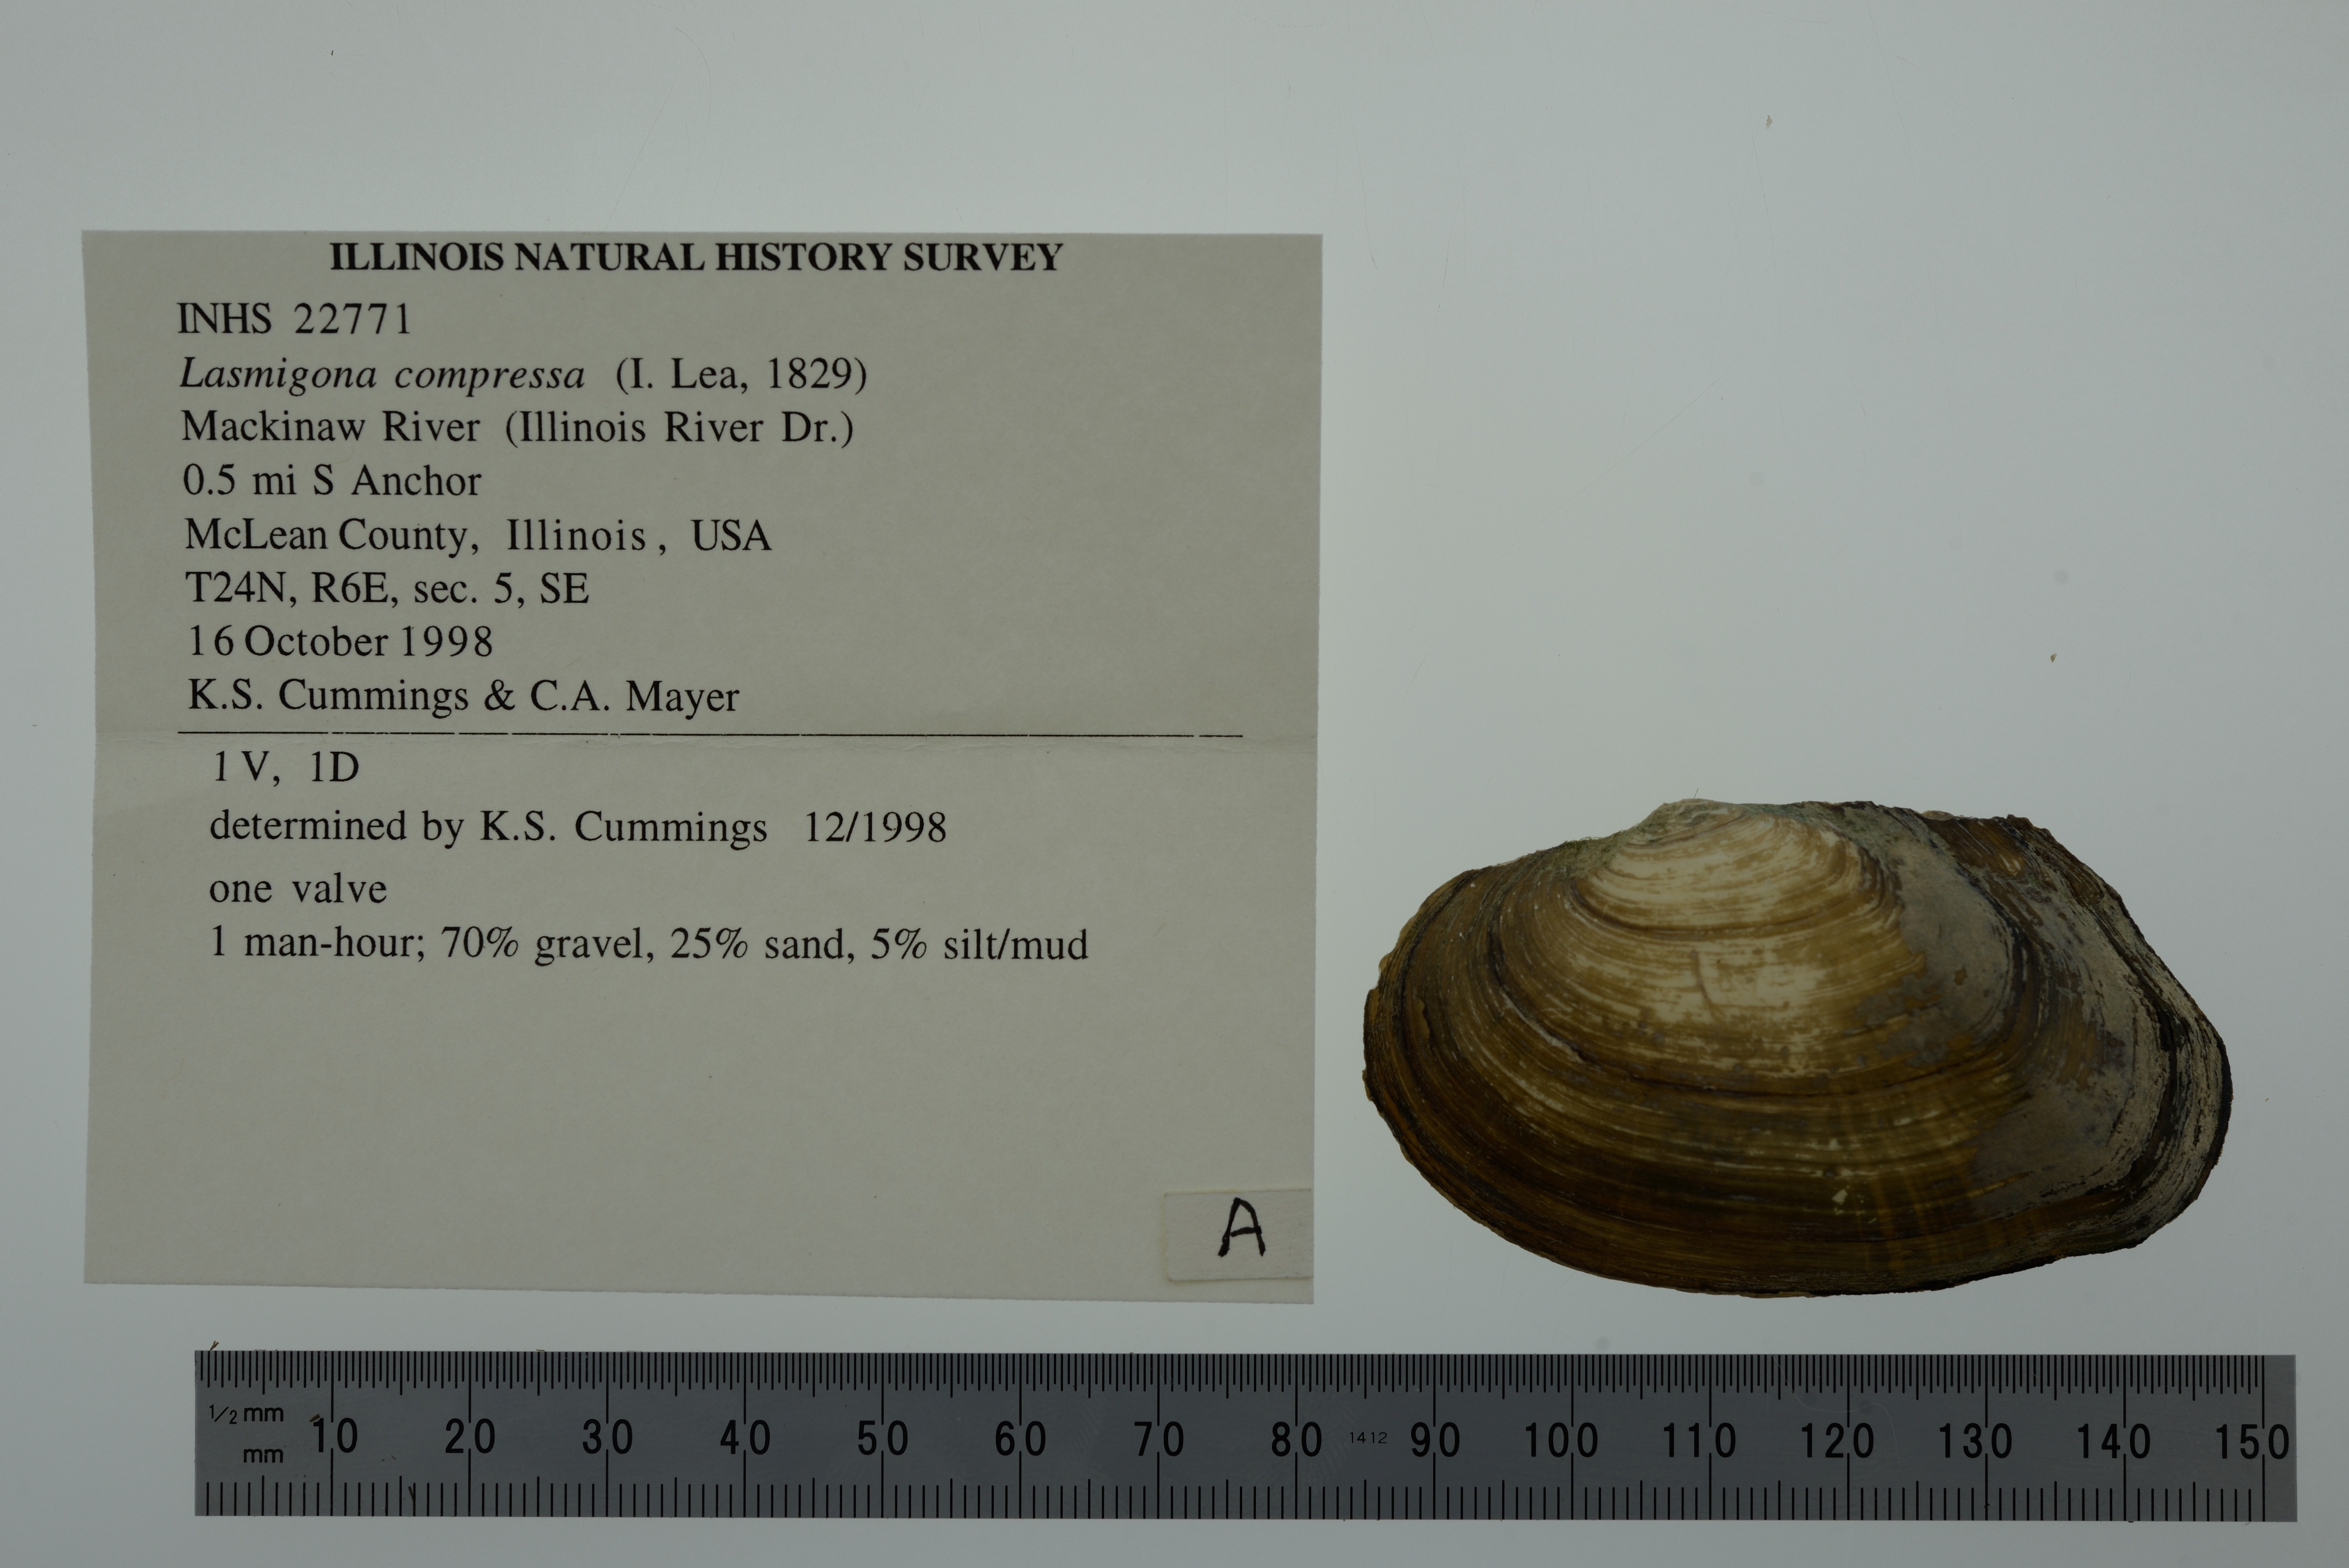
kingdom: Animalia
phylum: Mollusca
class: Bivalvia
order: Unionida
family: Unionidae
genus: Lasmigona
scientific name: Lasmigona compressa
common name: Creek heelsplitter
